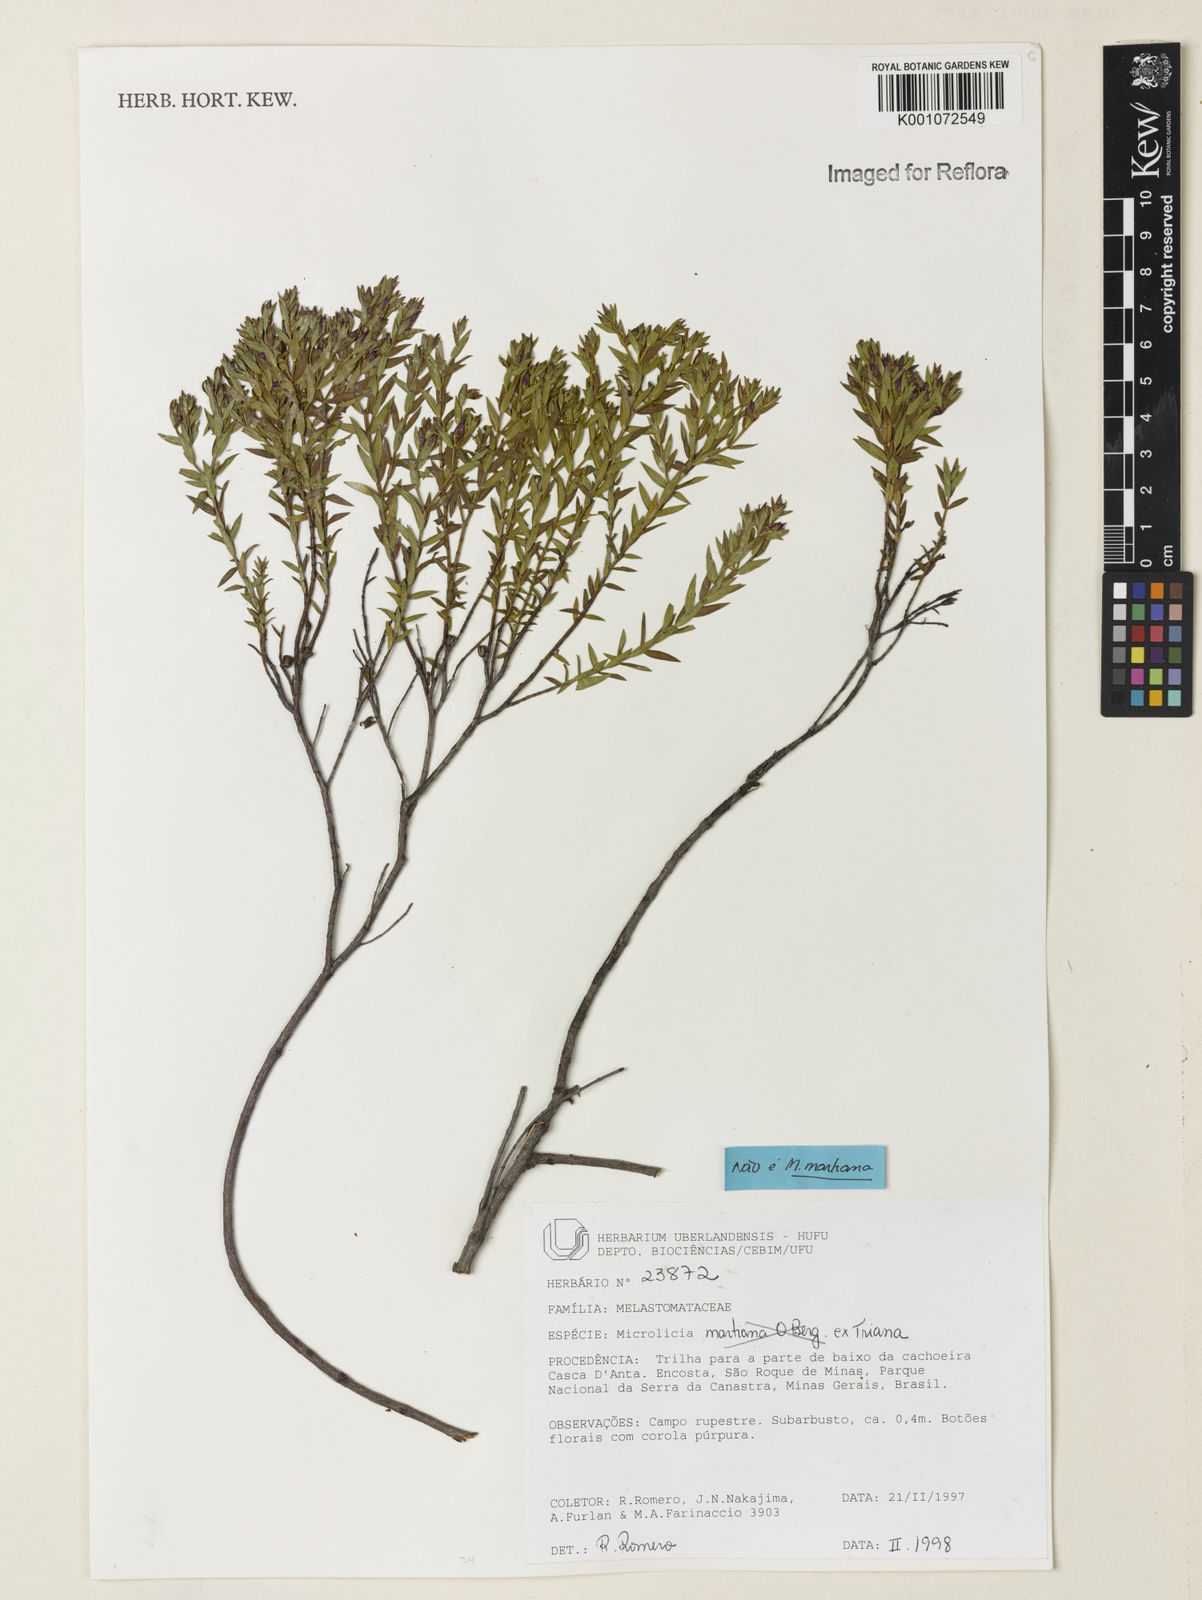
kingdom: Plantae
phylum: Tracheophyta
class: Magnoliopsida
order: Myrtales
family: Melastomataceae
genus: Microlicia
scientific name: Microlicia
